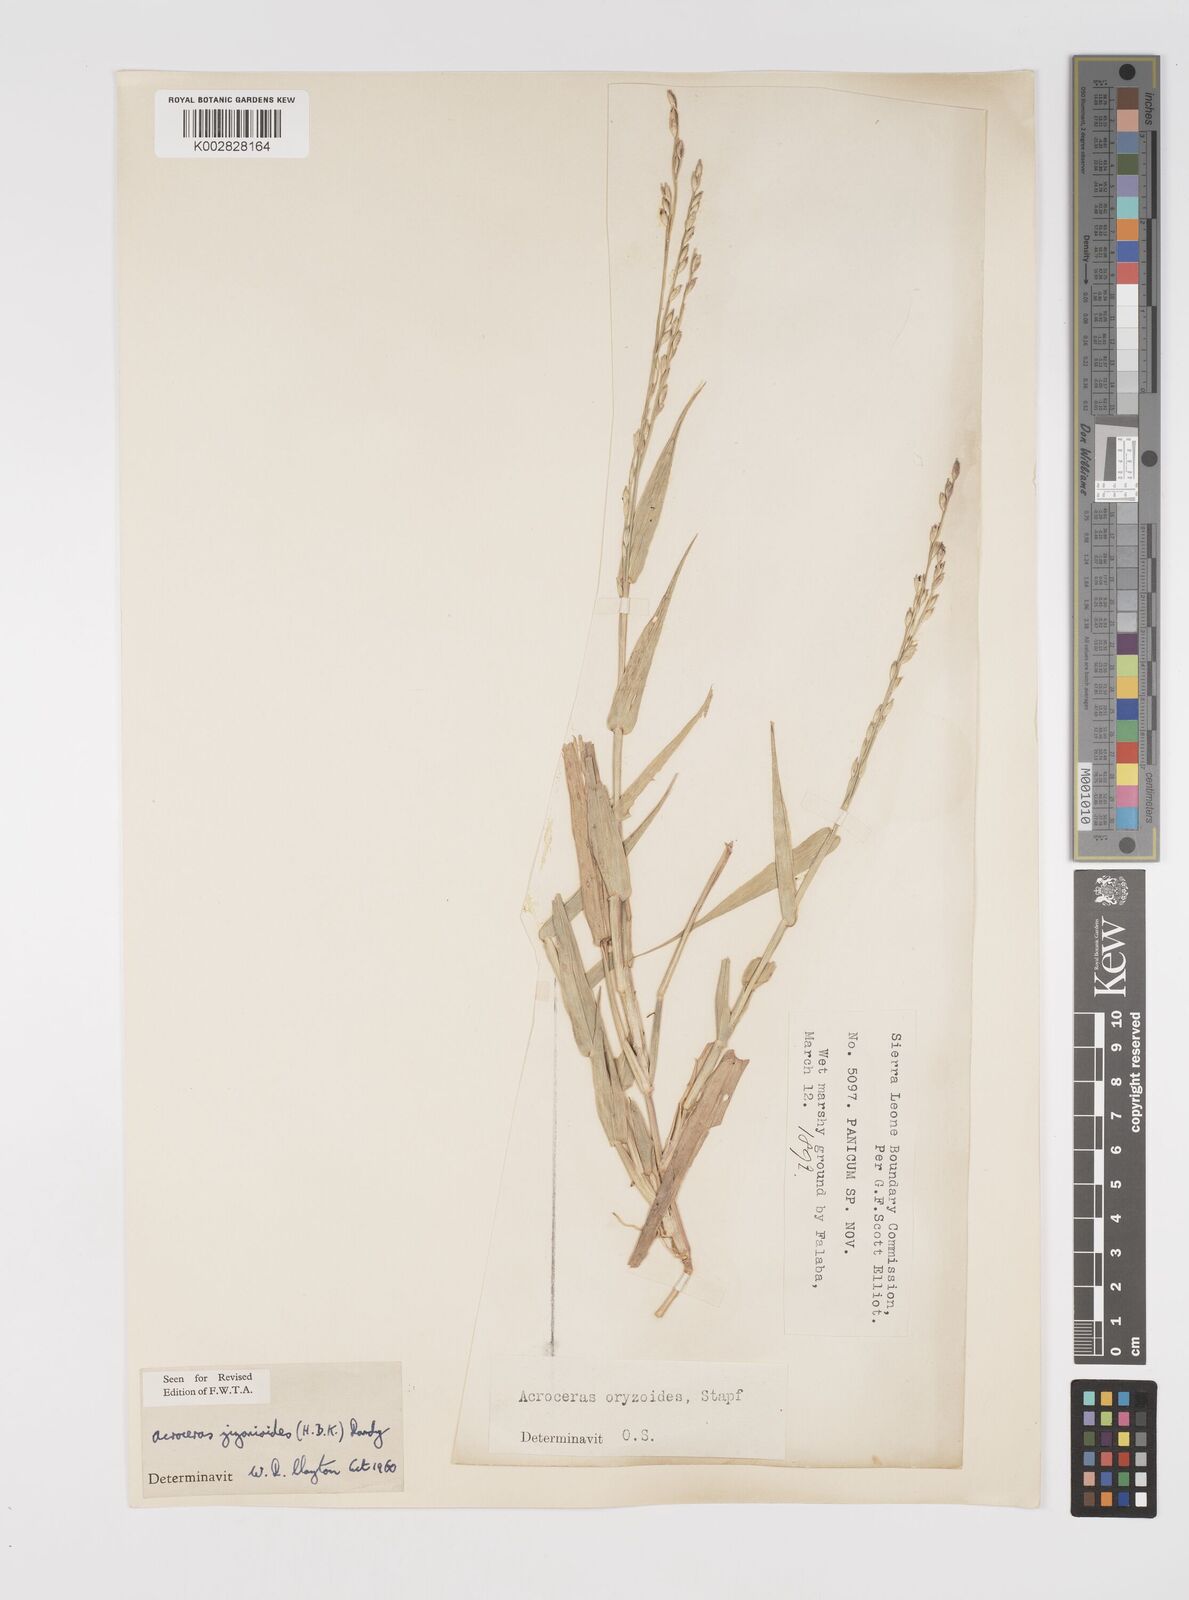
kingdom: Plantae
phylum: Tracheophyta
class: Liliopsida
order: Poales
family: Poaceae
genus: Acroceras
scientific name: Acroceras zizanioides
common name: Oat grass
